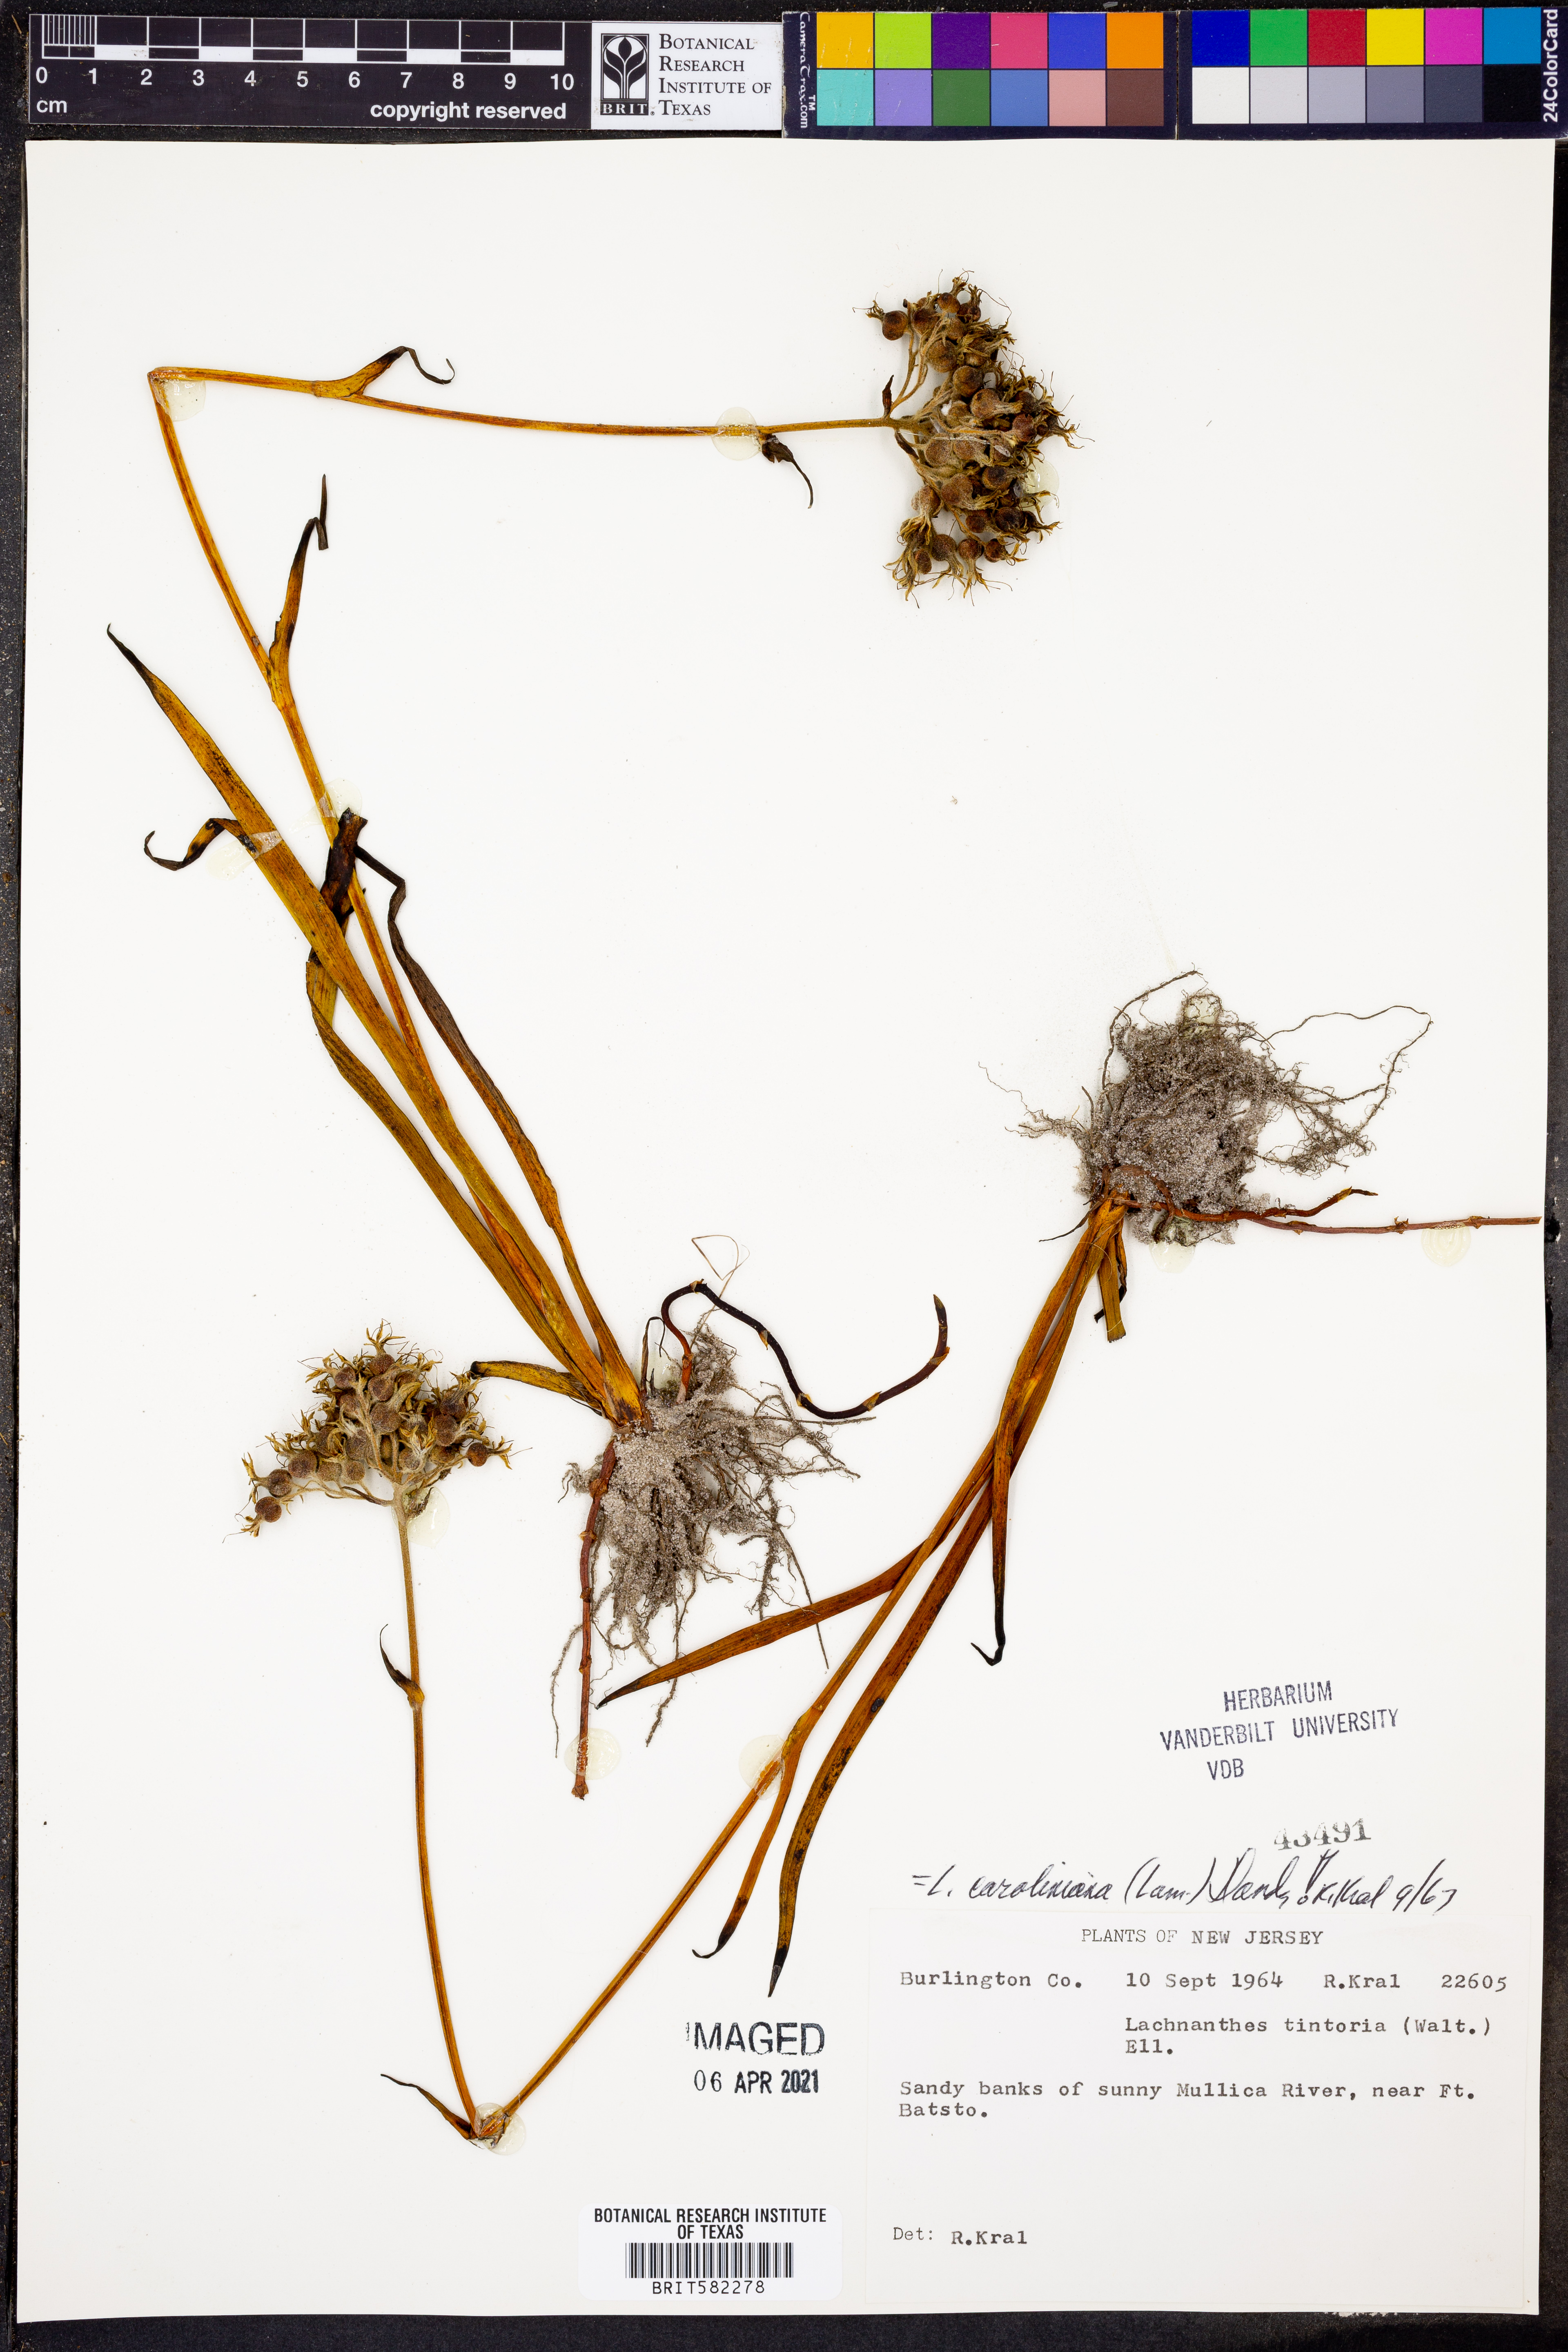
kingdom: Plantae
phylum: Tracheophyta
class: Liliopsida
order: Commelinales
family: Haemodoraceae
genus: Lachnanthes
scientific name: Lachnanthes caroliniana
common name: Carolina redroot
